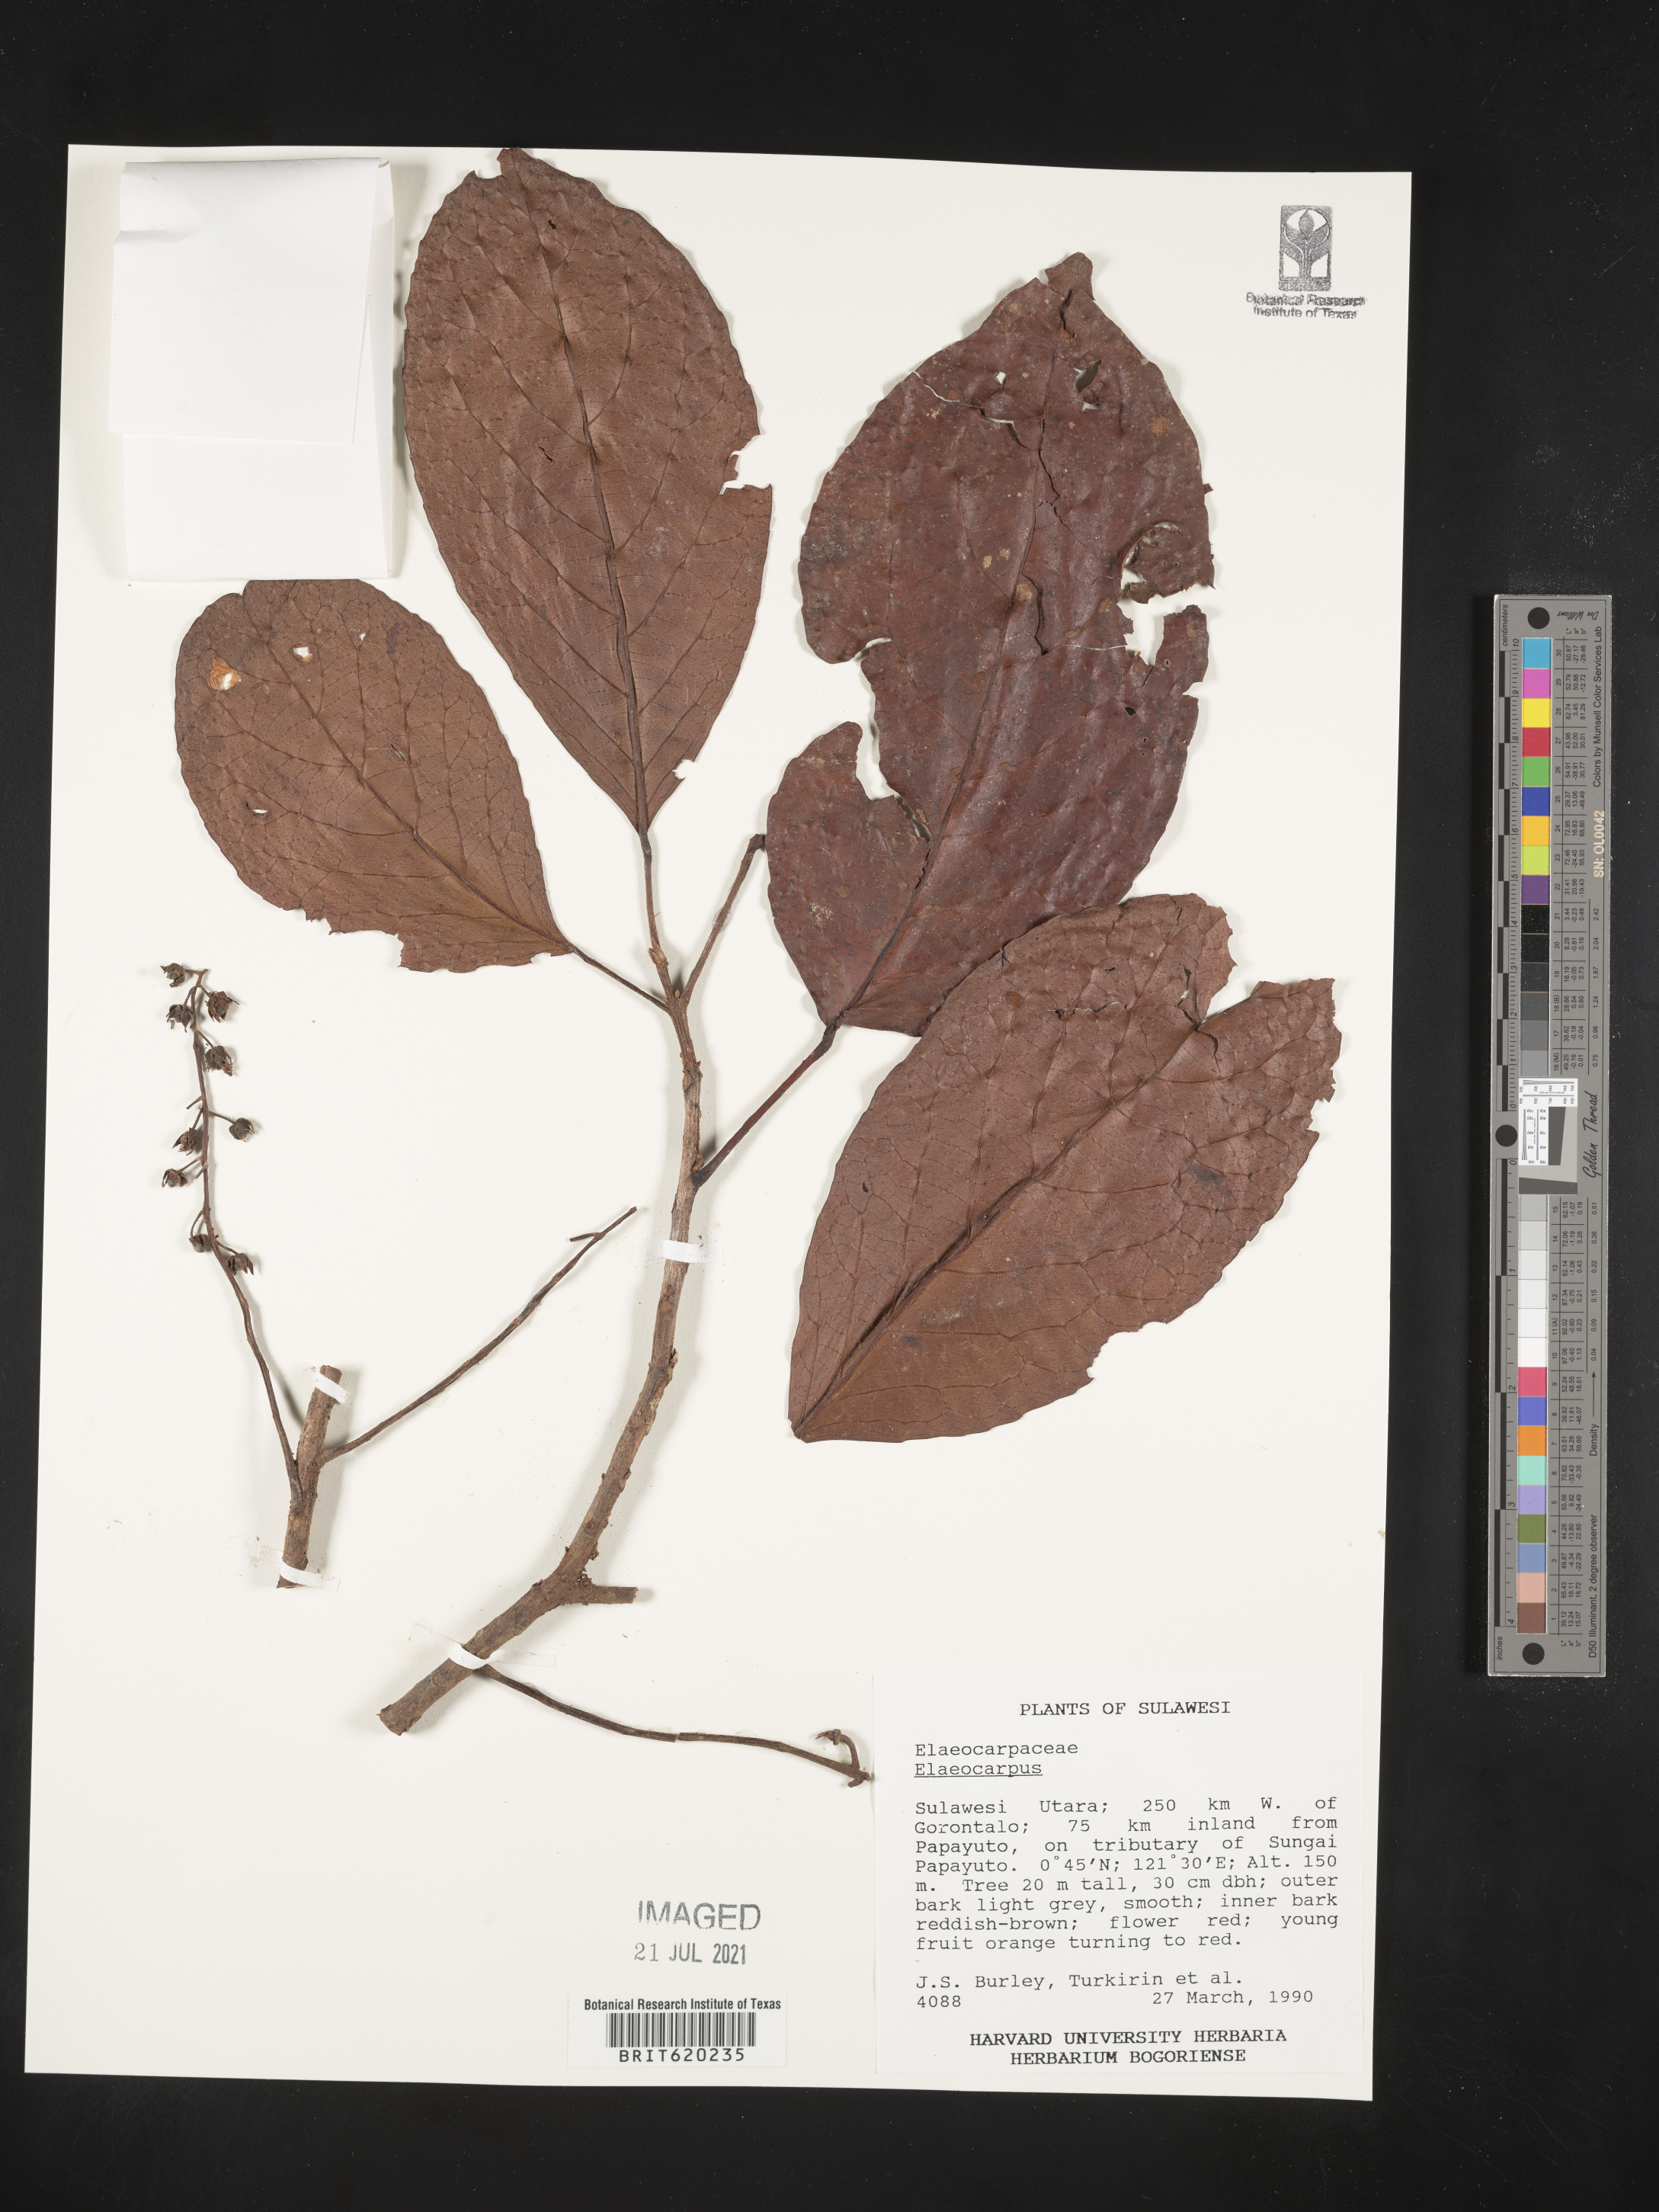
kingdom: Plantae
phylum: Tracheophyta
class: Magnoliopsida
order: Oxalidales
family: Elaeocarpaceae
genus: Elaeocarpus
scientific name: Elaeocarpus
